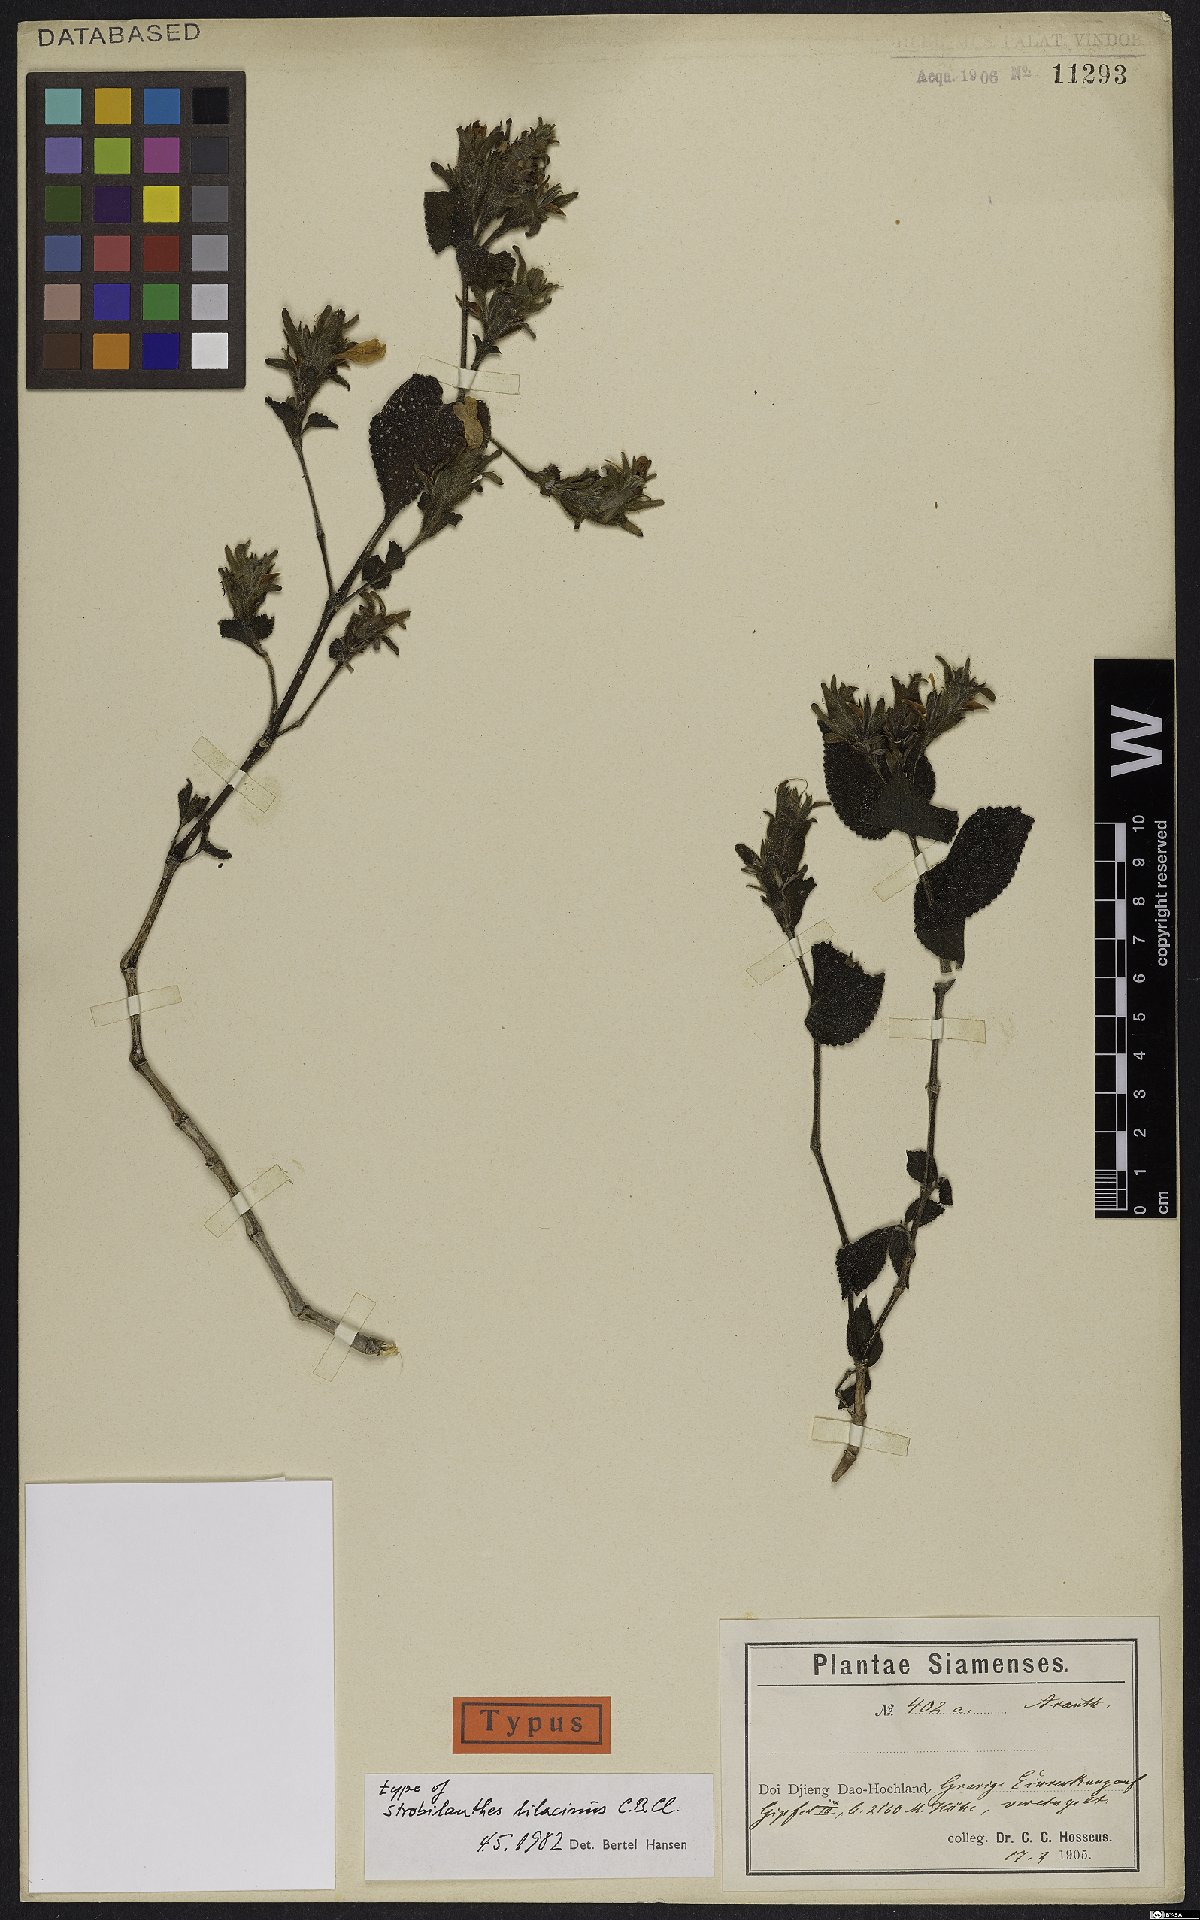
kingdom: Plantae
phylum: Tracheophyta
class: Magnoliopsida
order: Lamiales
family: Acanthaceae
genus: Strobilanthes
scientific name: Strobilanthes karensium
